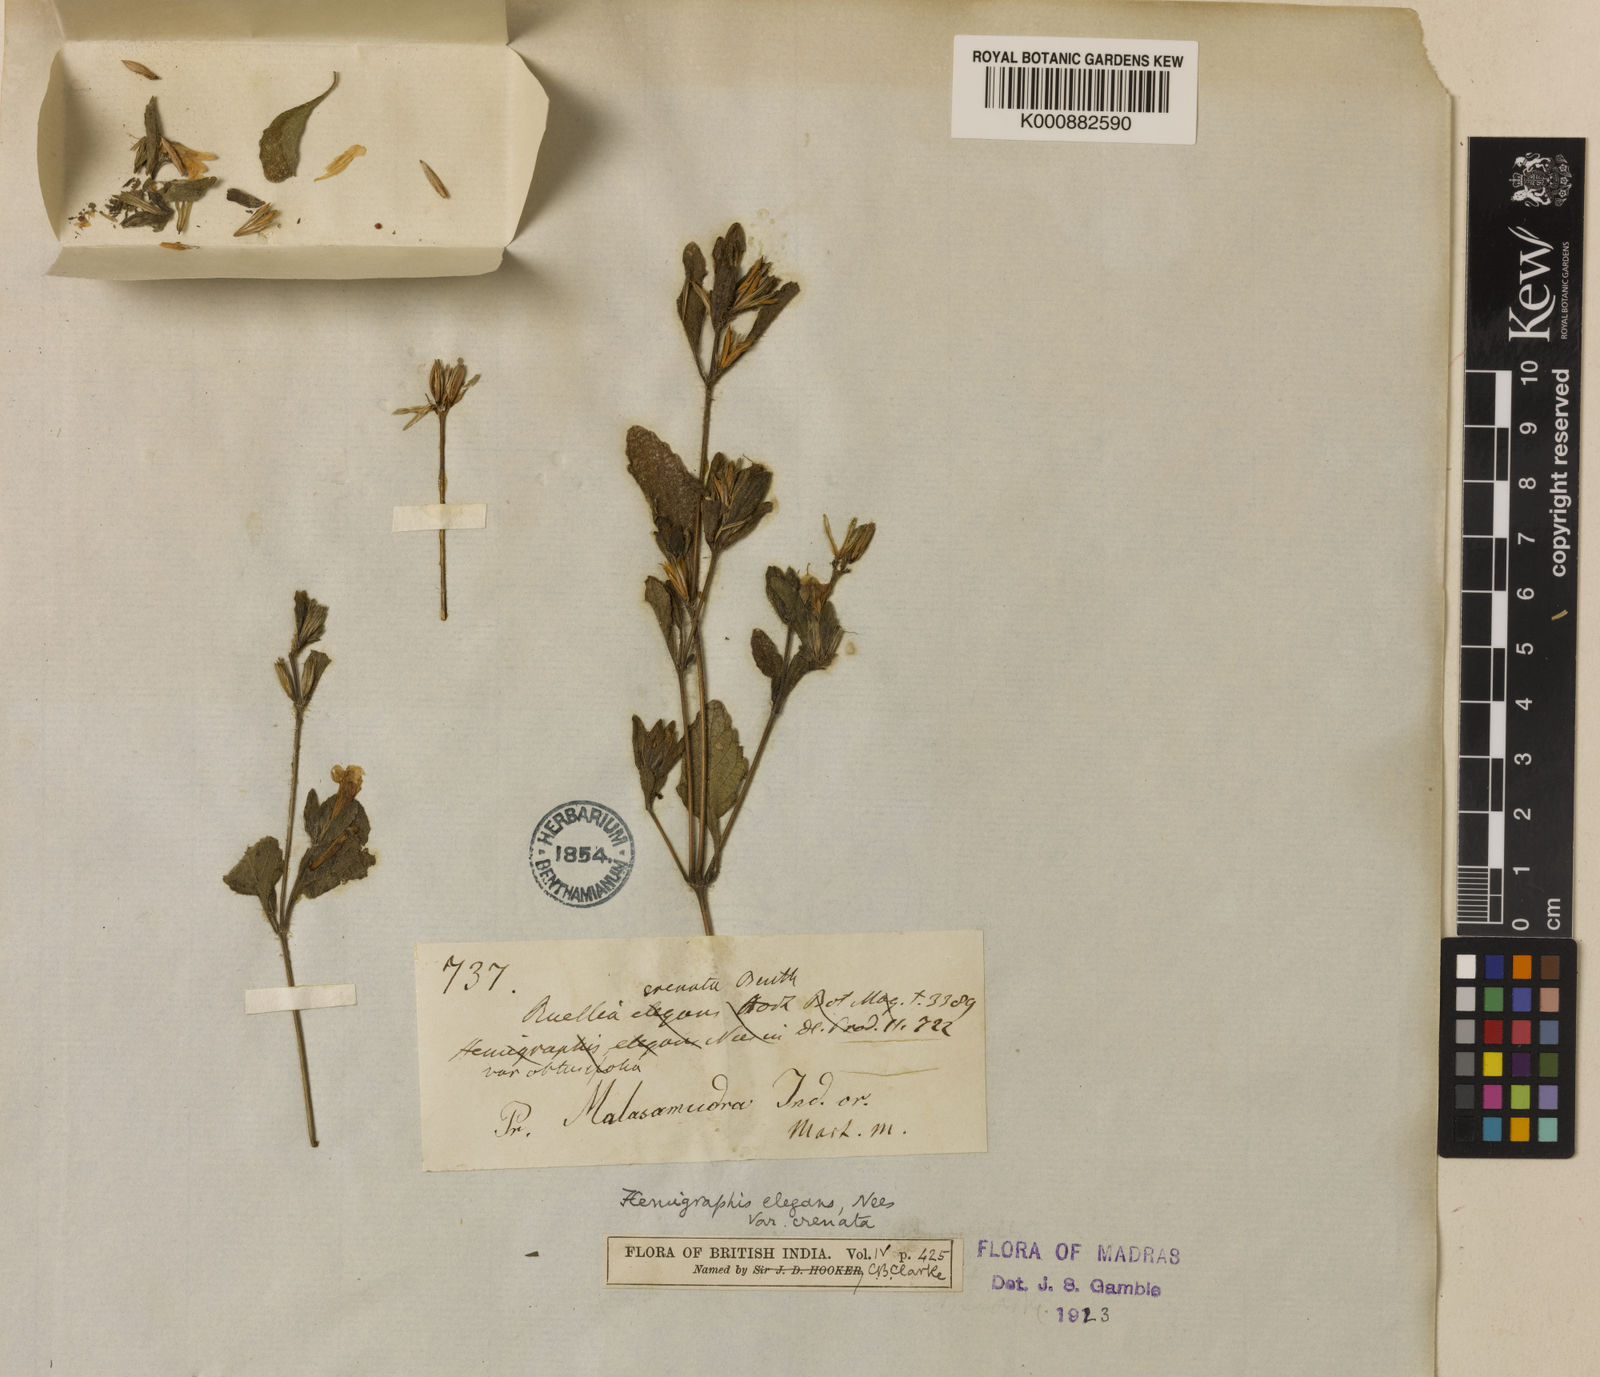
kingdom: Plantae
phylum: Tracheophyta
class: Magnoliopsida
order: Lamiales
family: Acanthaceae
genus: Strobilanthes
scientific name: Strobilanthes pavala
